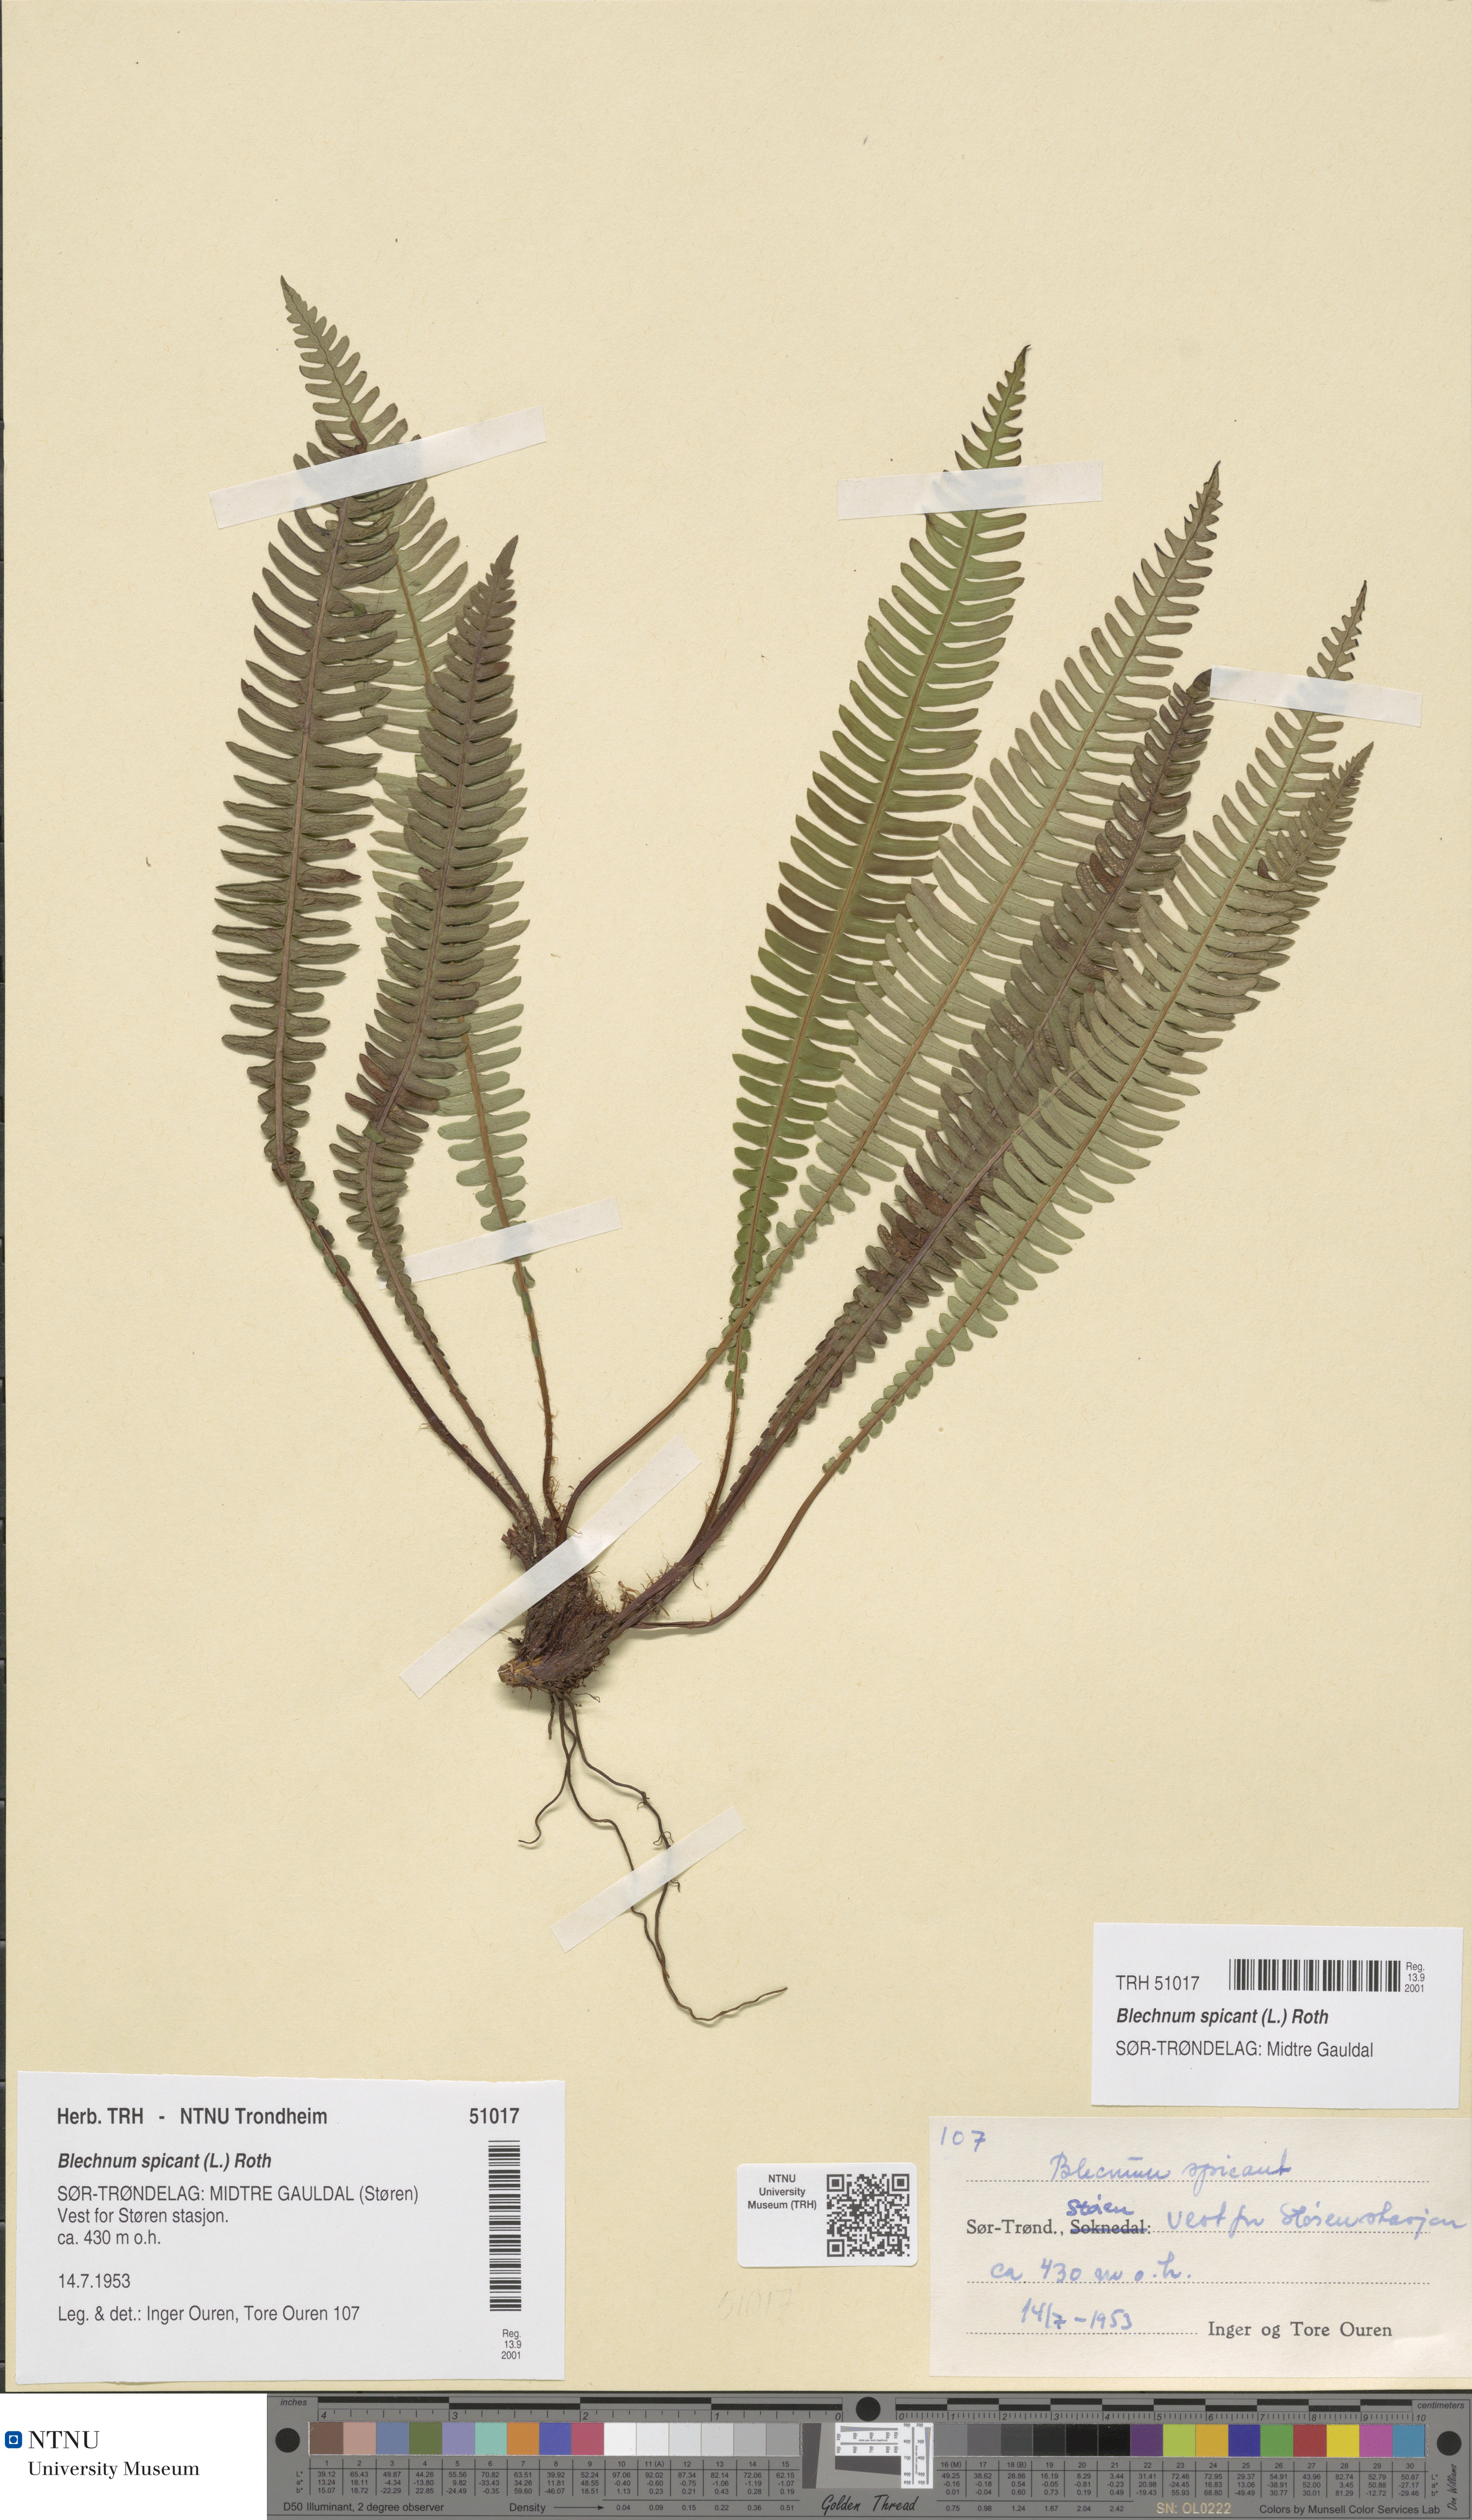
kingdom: Plantae
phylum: Tracheophyta
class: Polypodiopsida
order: Polypodiales
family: Blechnaceae
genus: Struthiopteris
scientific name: Struthiopteris spicant
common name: Deer fern
